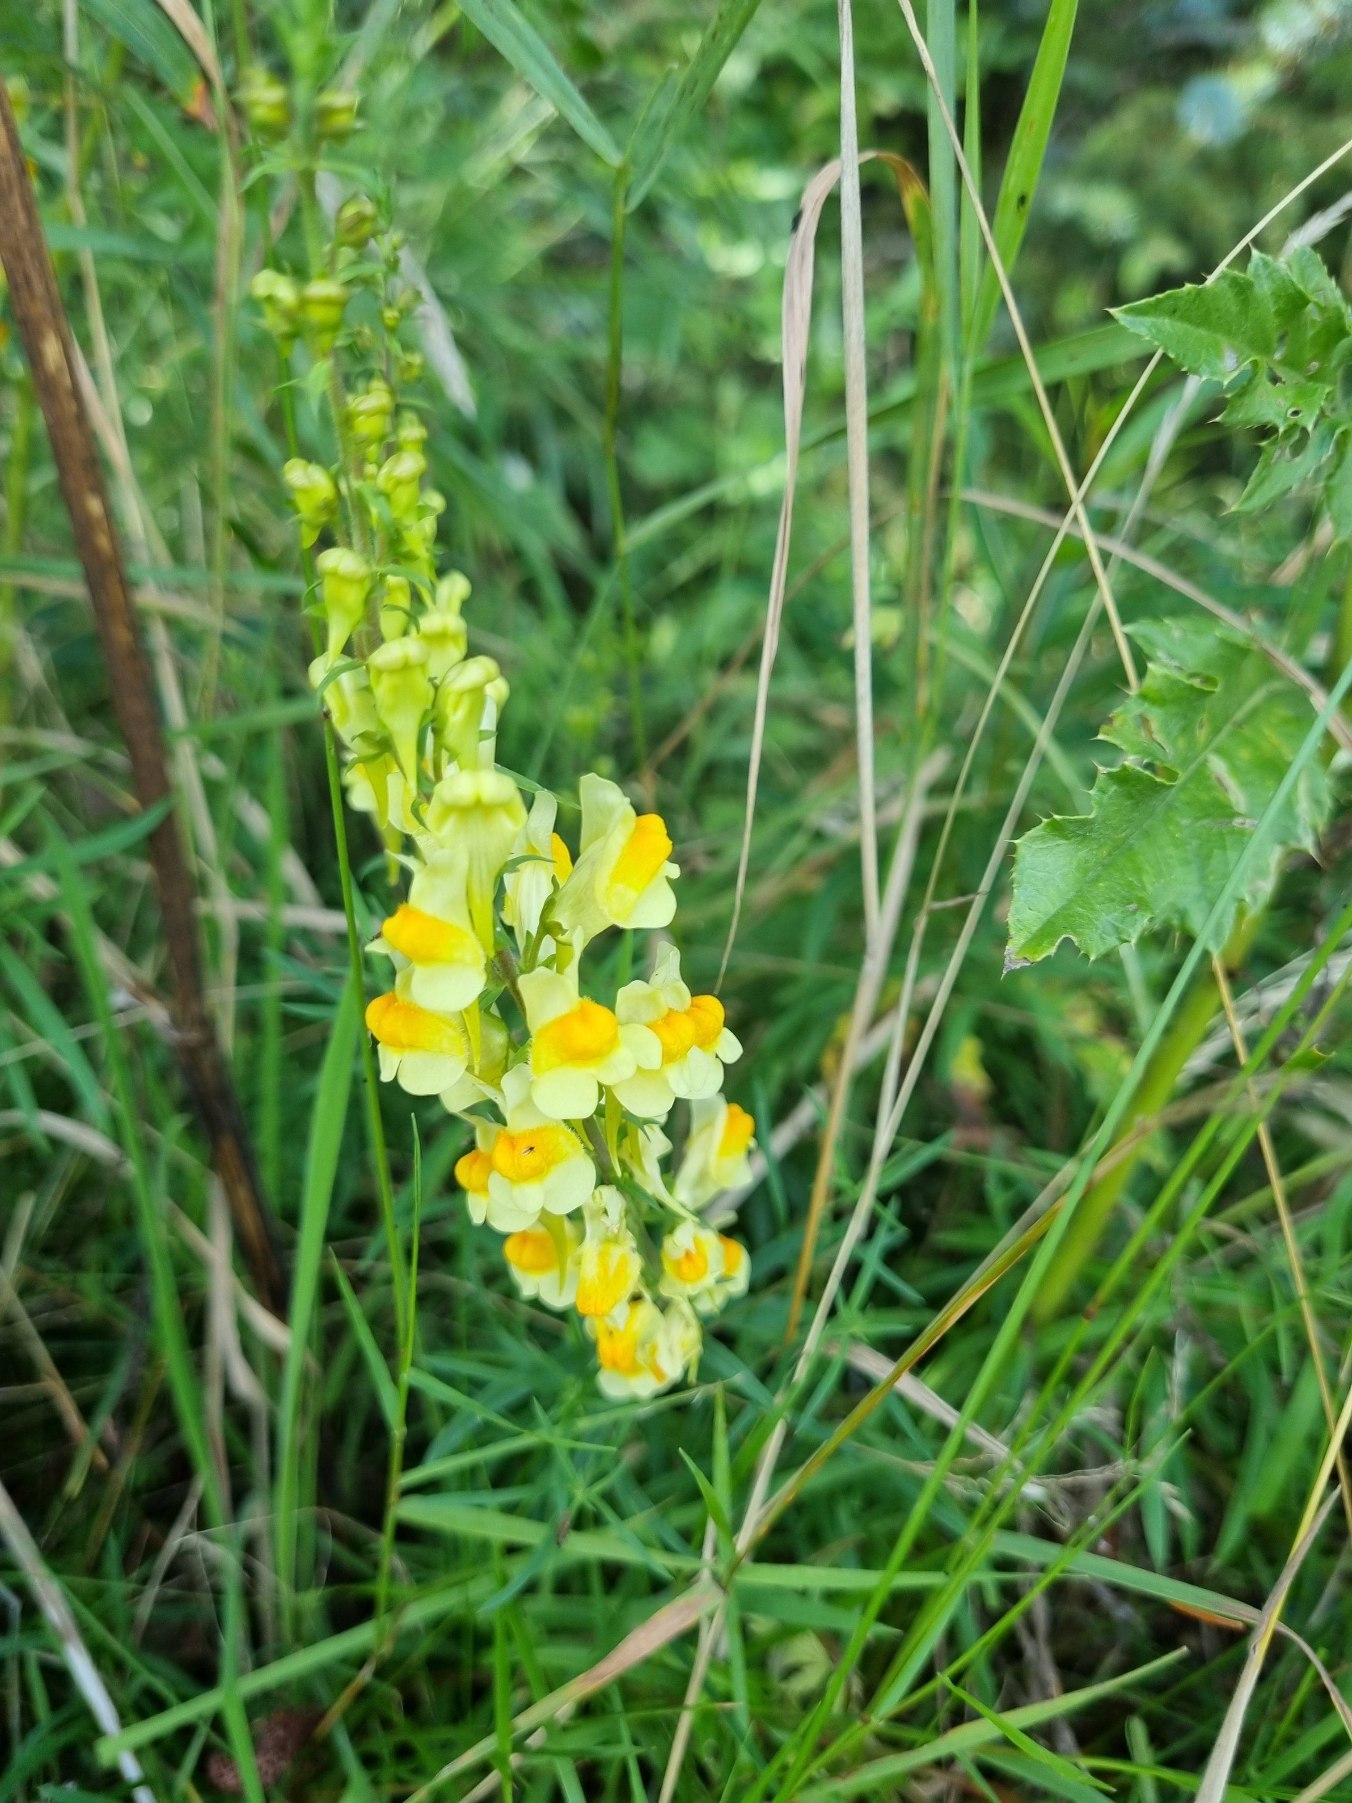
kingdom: Plantae
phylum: Tracheophyta
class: Magnoliopsida
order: Lamiales
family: Plantaginaceae
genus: Linaria
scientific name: Linaria vulgaris
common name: Almindelig torskemund
